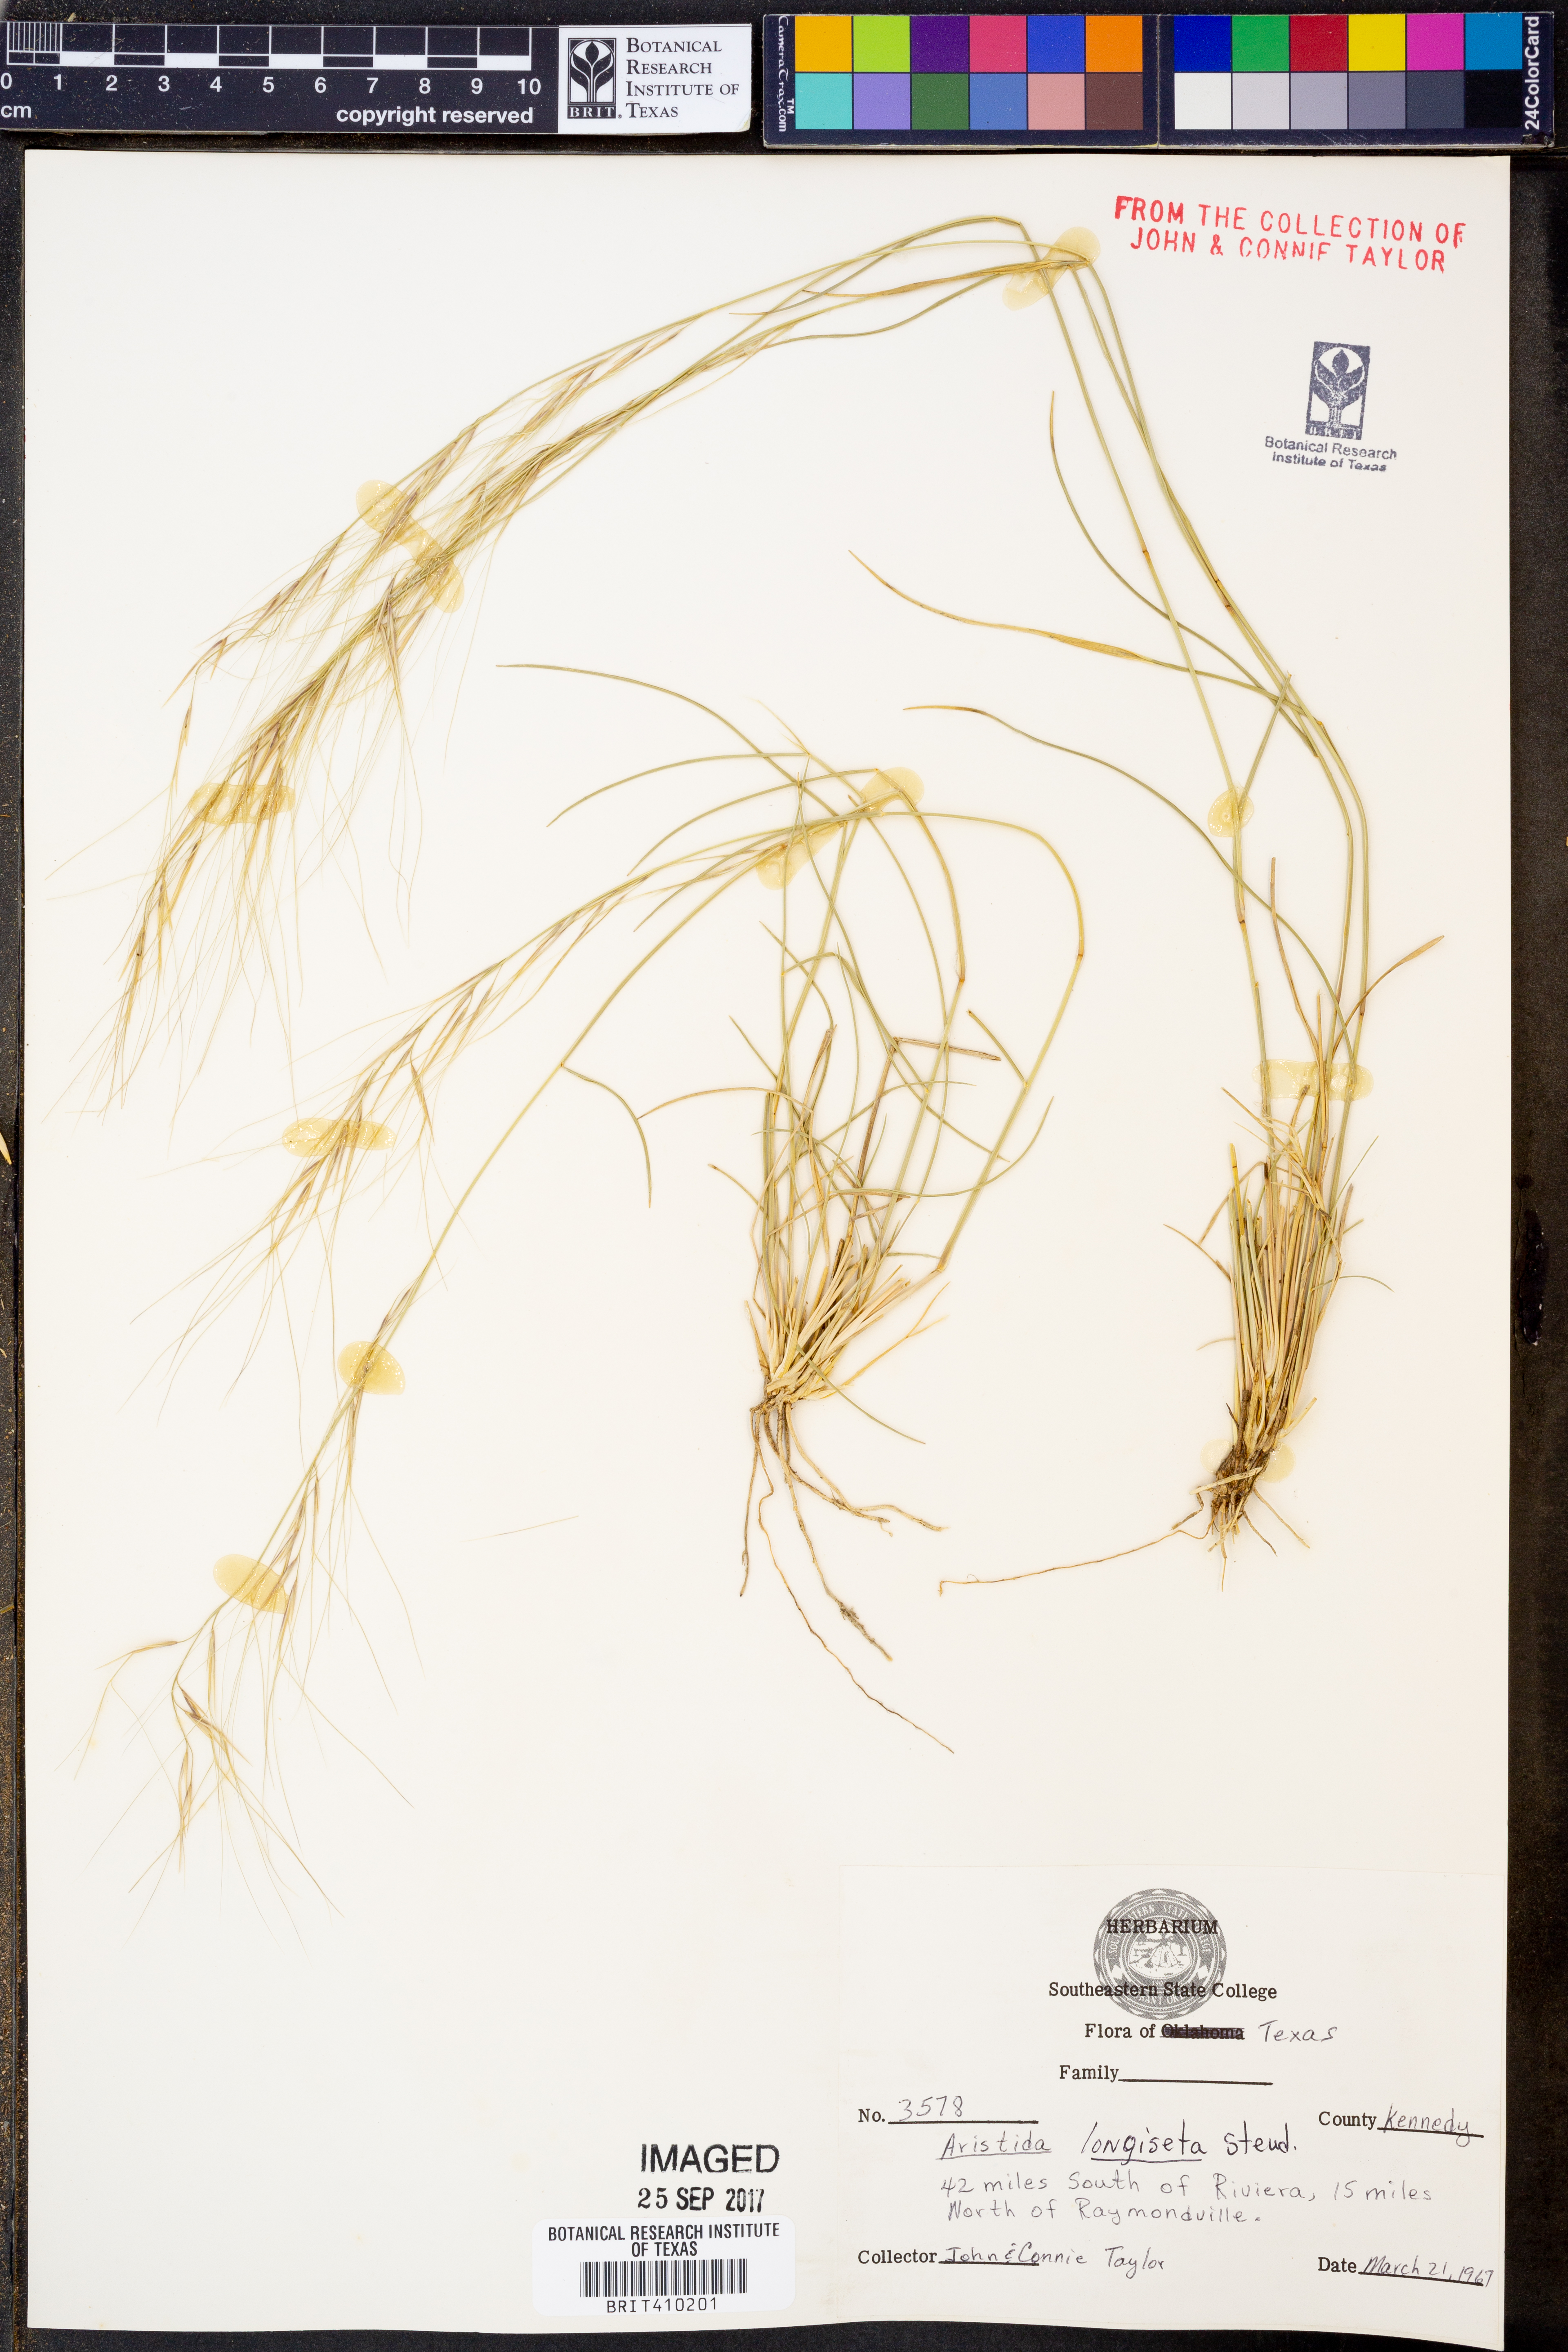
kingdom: Plantae
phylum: Tracheophyta
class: Liliopsida
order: Poales
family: Poaceae
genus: Aristida
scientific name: Aristida longiseta
